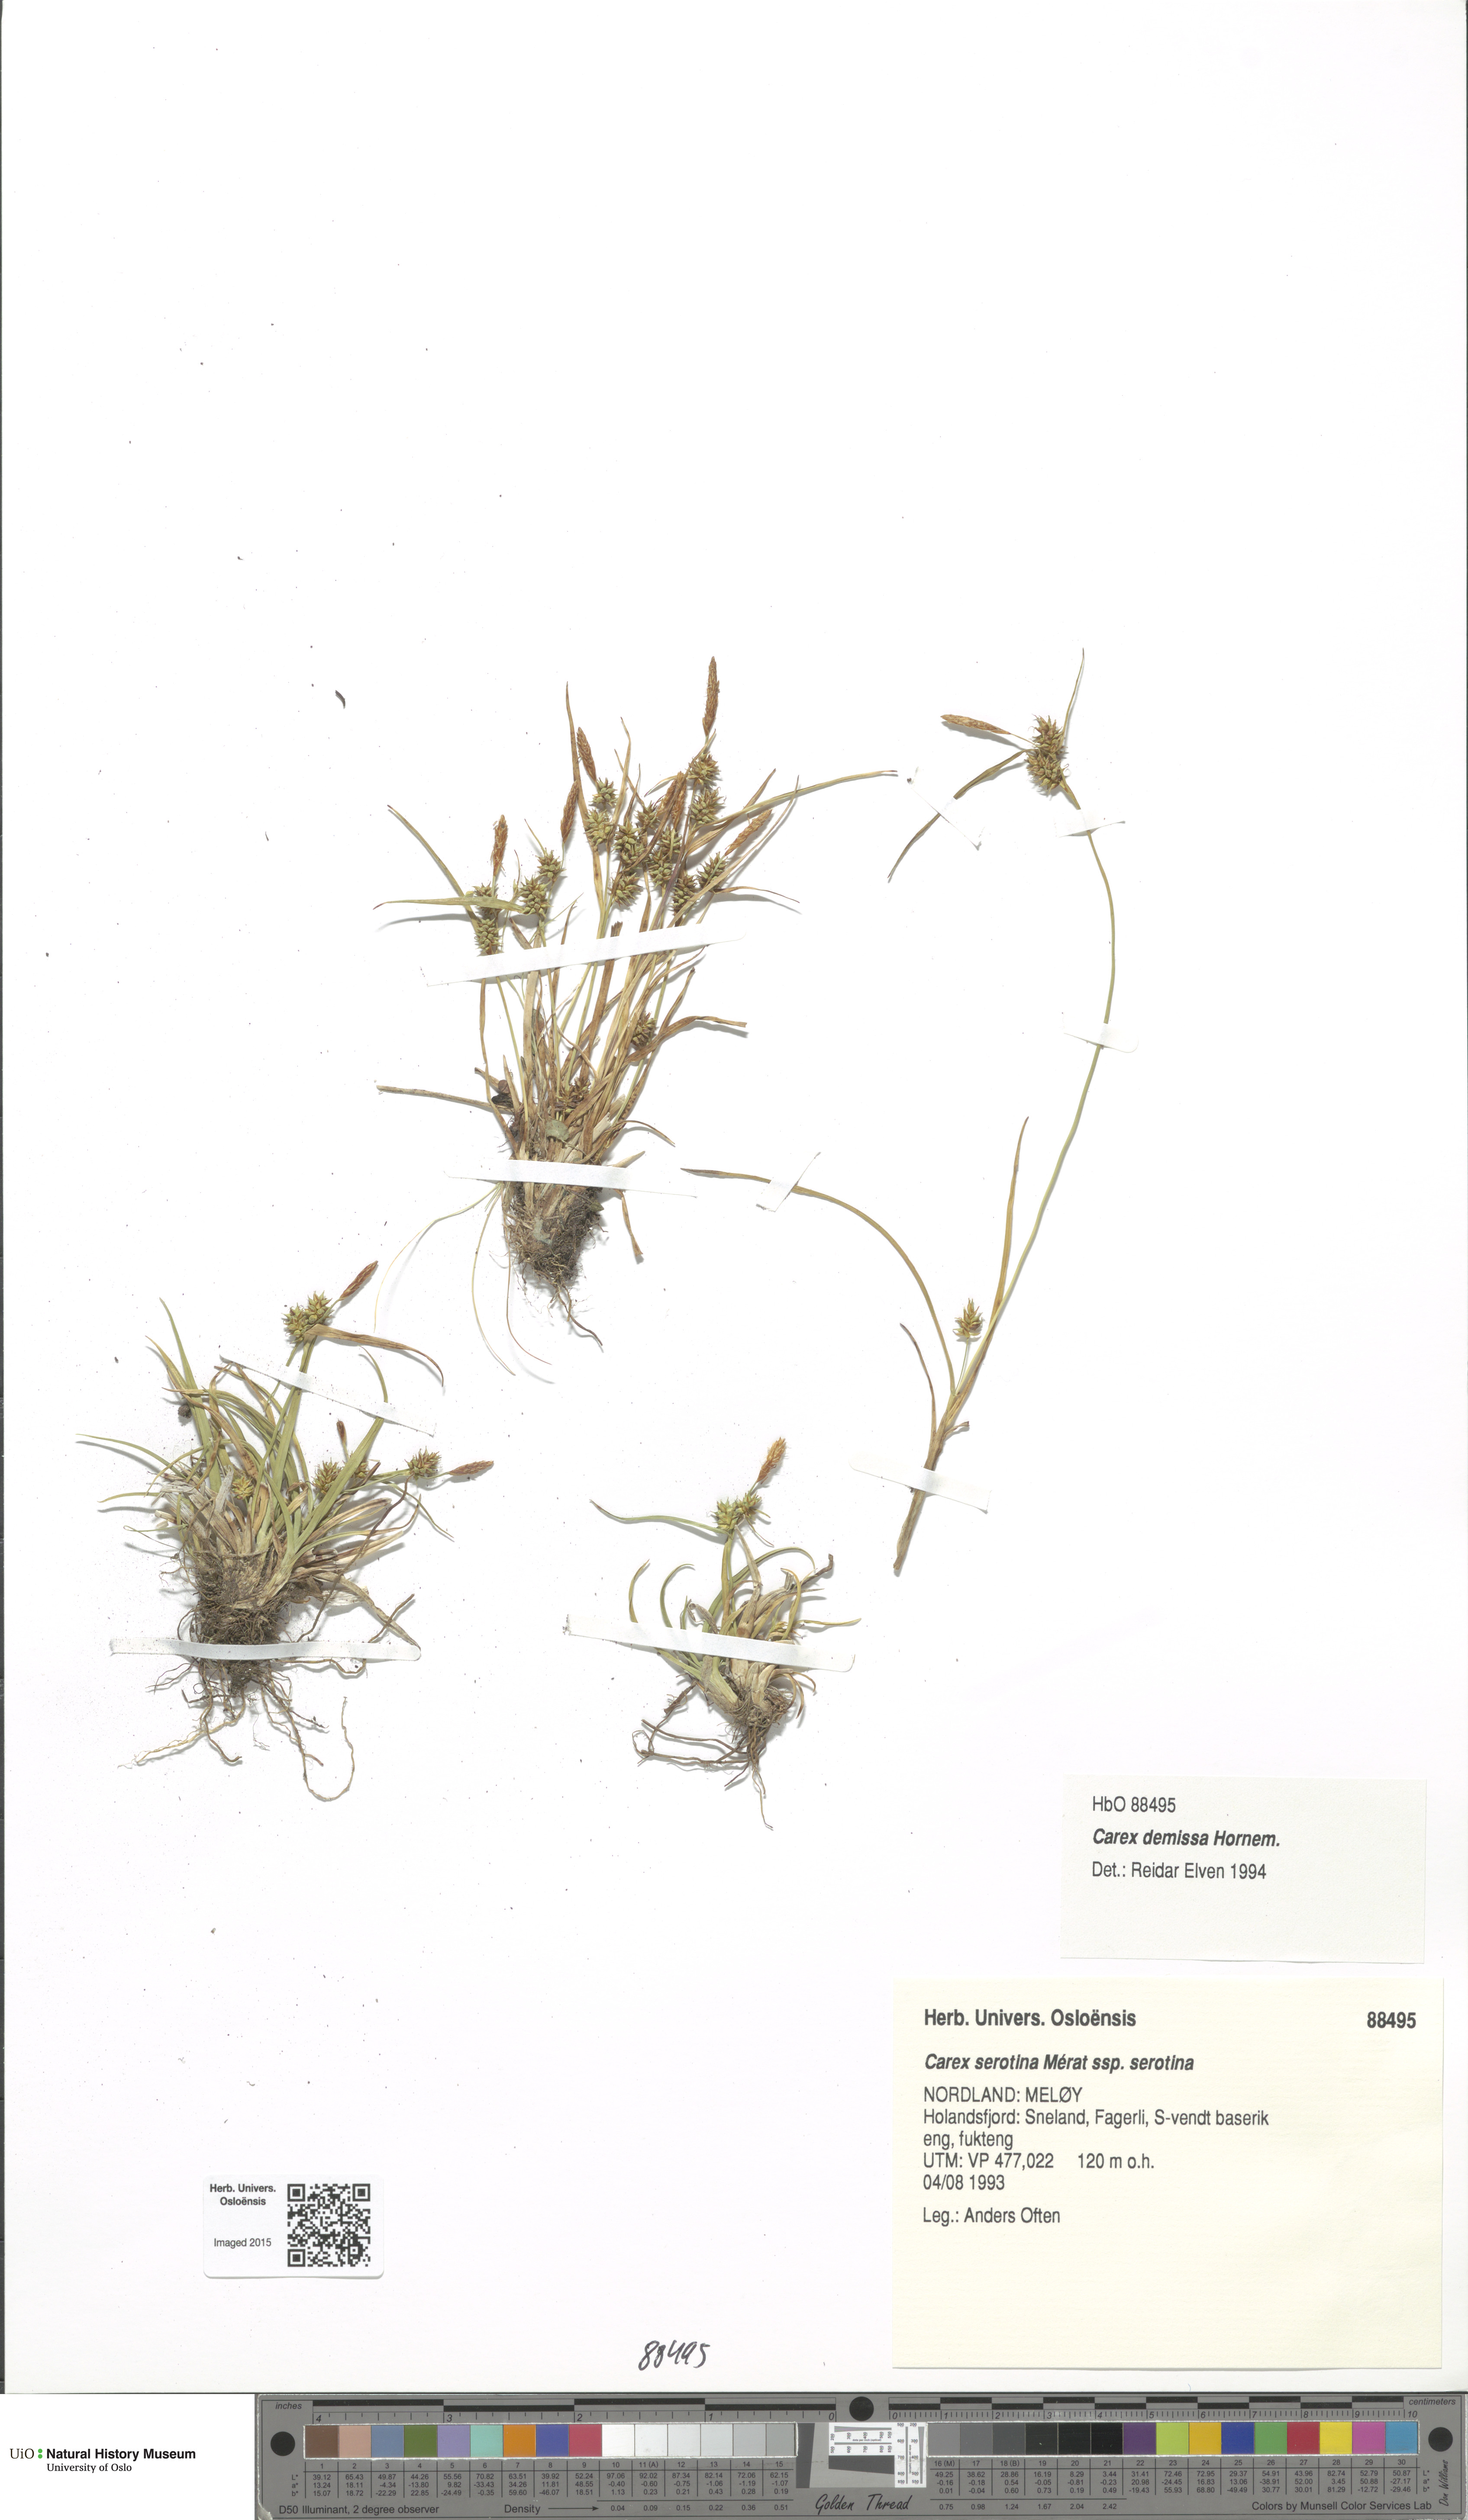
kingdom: Plantae
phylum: Tracheophyta
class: Liliopsida
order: Poales
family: Cyperaceae
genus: Carex
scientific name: Carex demissa
